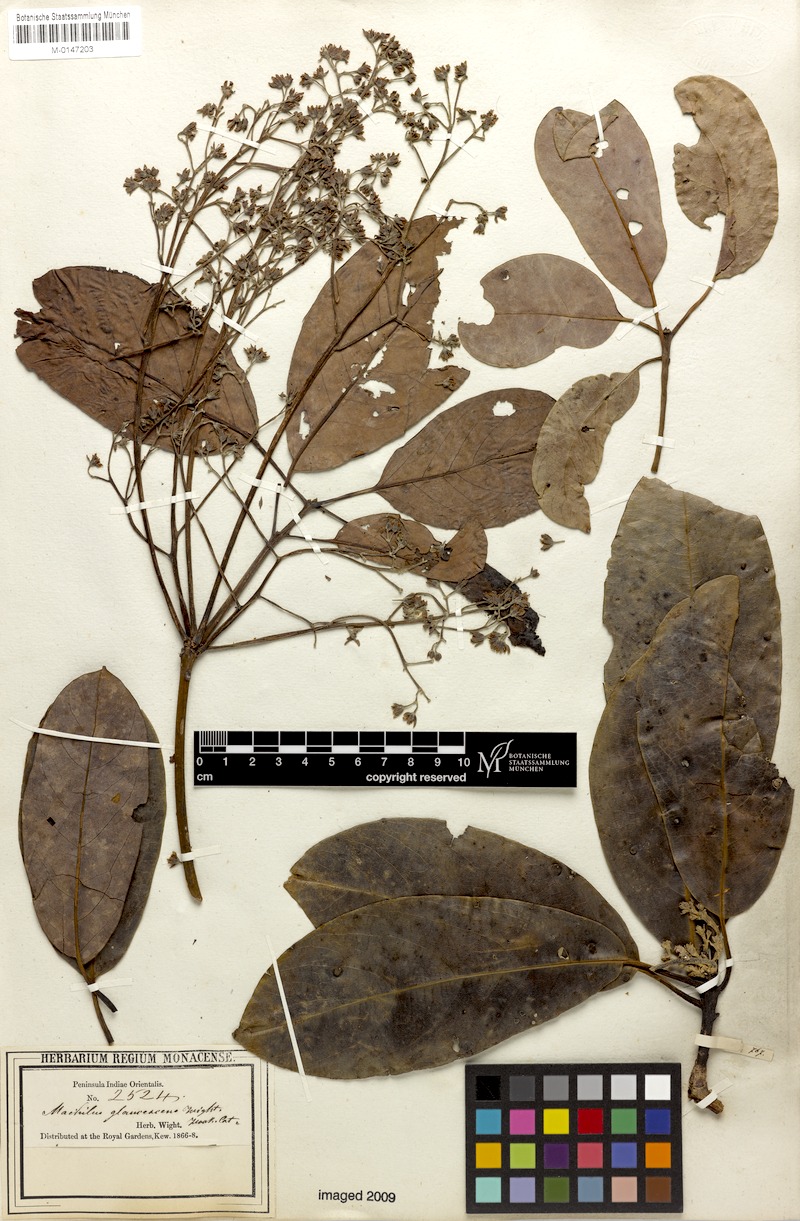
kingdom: Plantae
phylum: Tracheophyta
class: Magnoliopsida
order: Laurales
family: Lauraceae
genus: Machilus
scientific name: Machilus glaucescens
